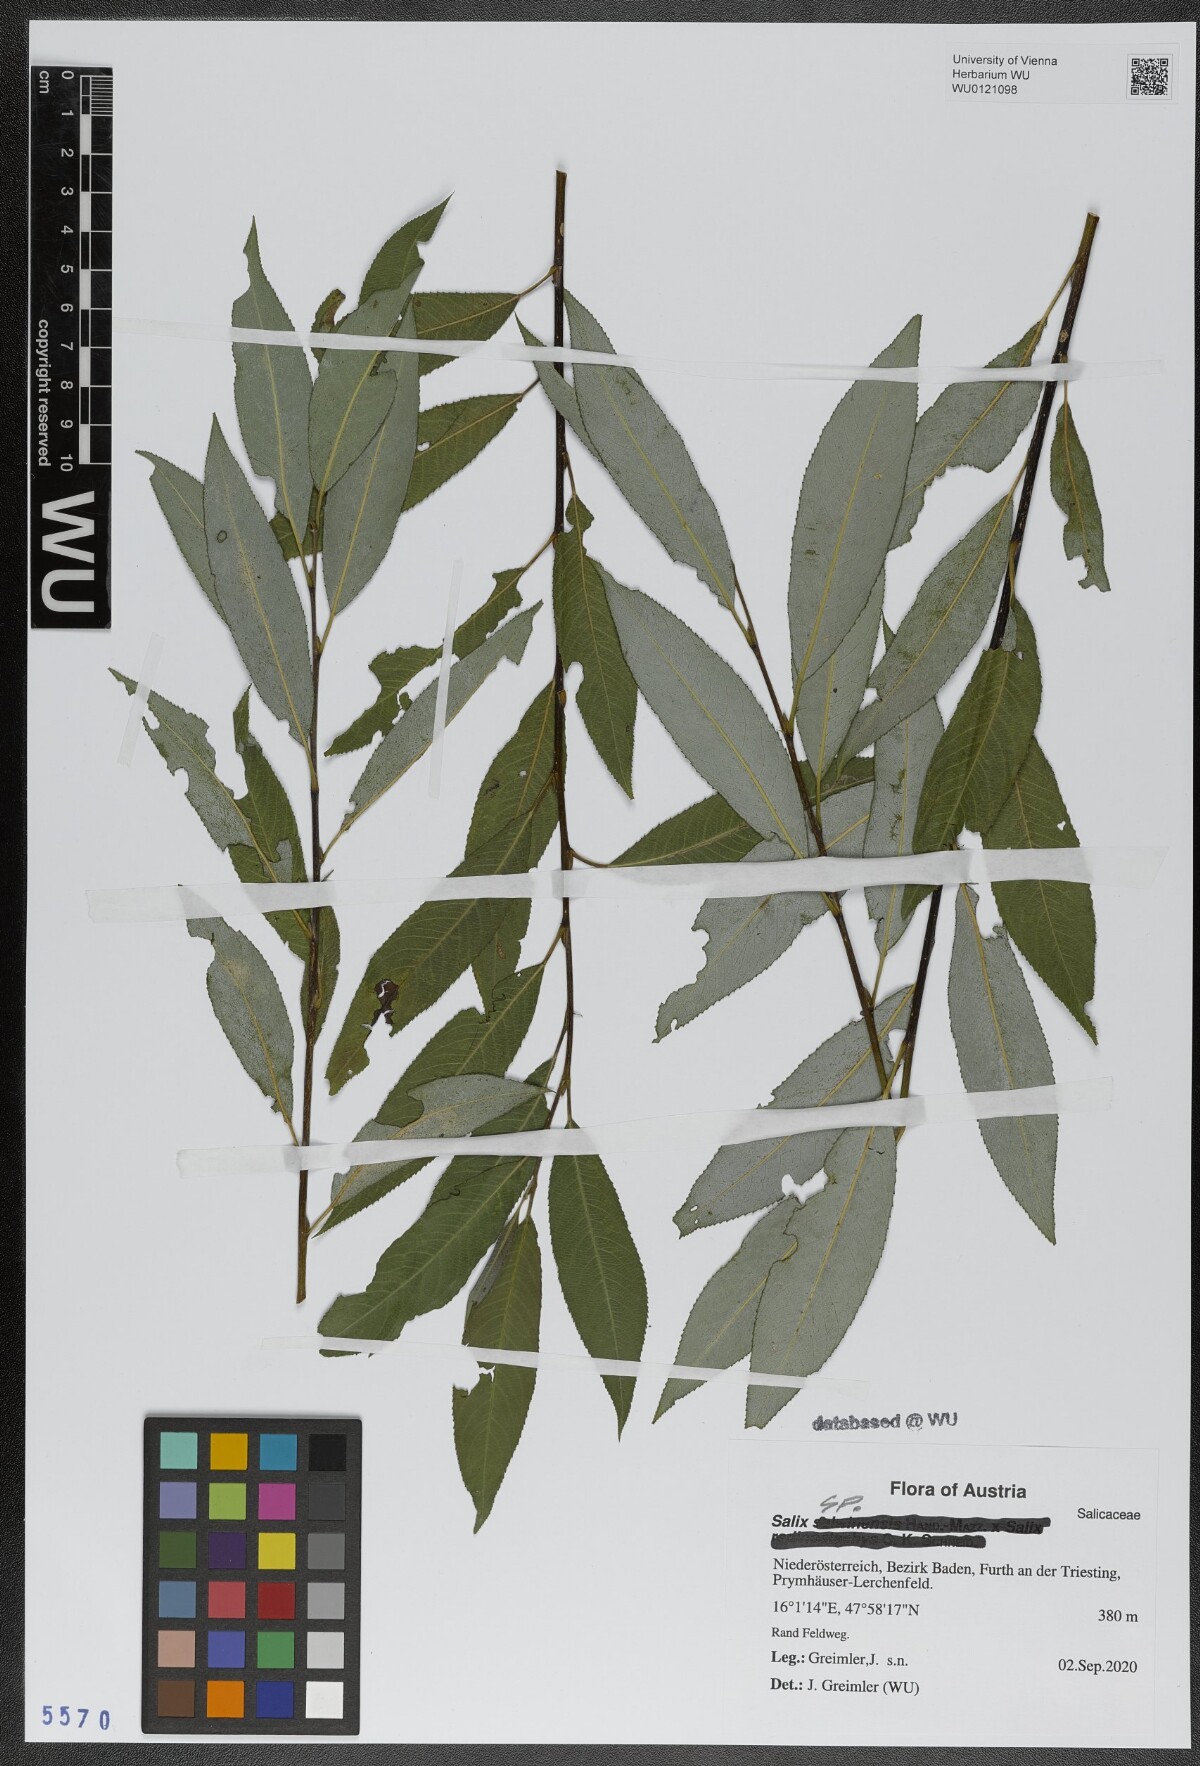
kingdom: Plantae
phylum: Tracheophyta
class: Magnoliopsida
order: Malpighiales
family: Salicaceae
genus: Salix
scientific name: Salix
